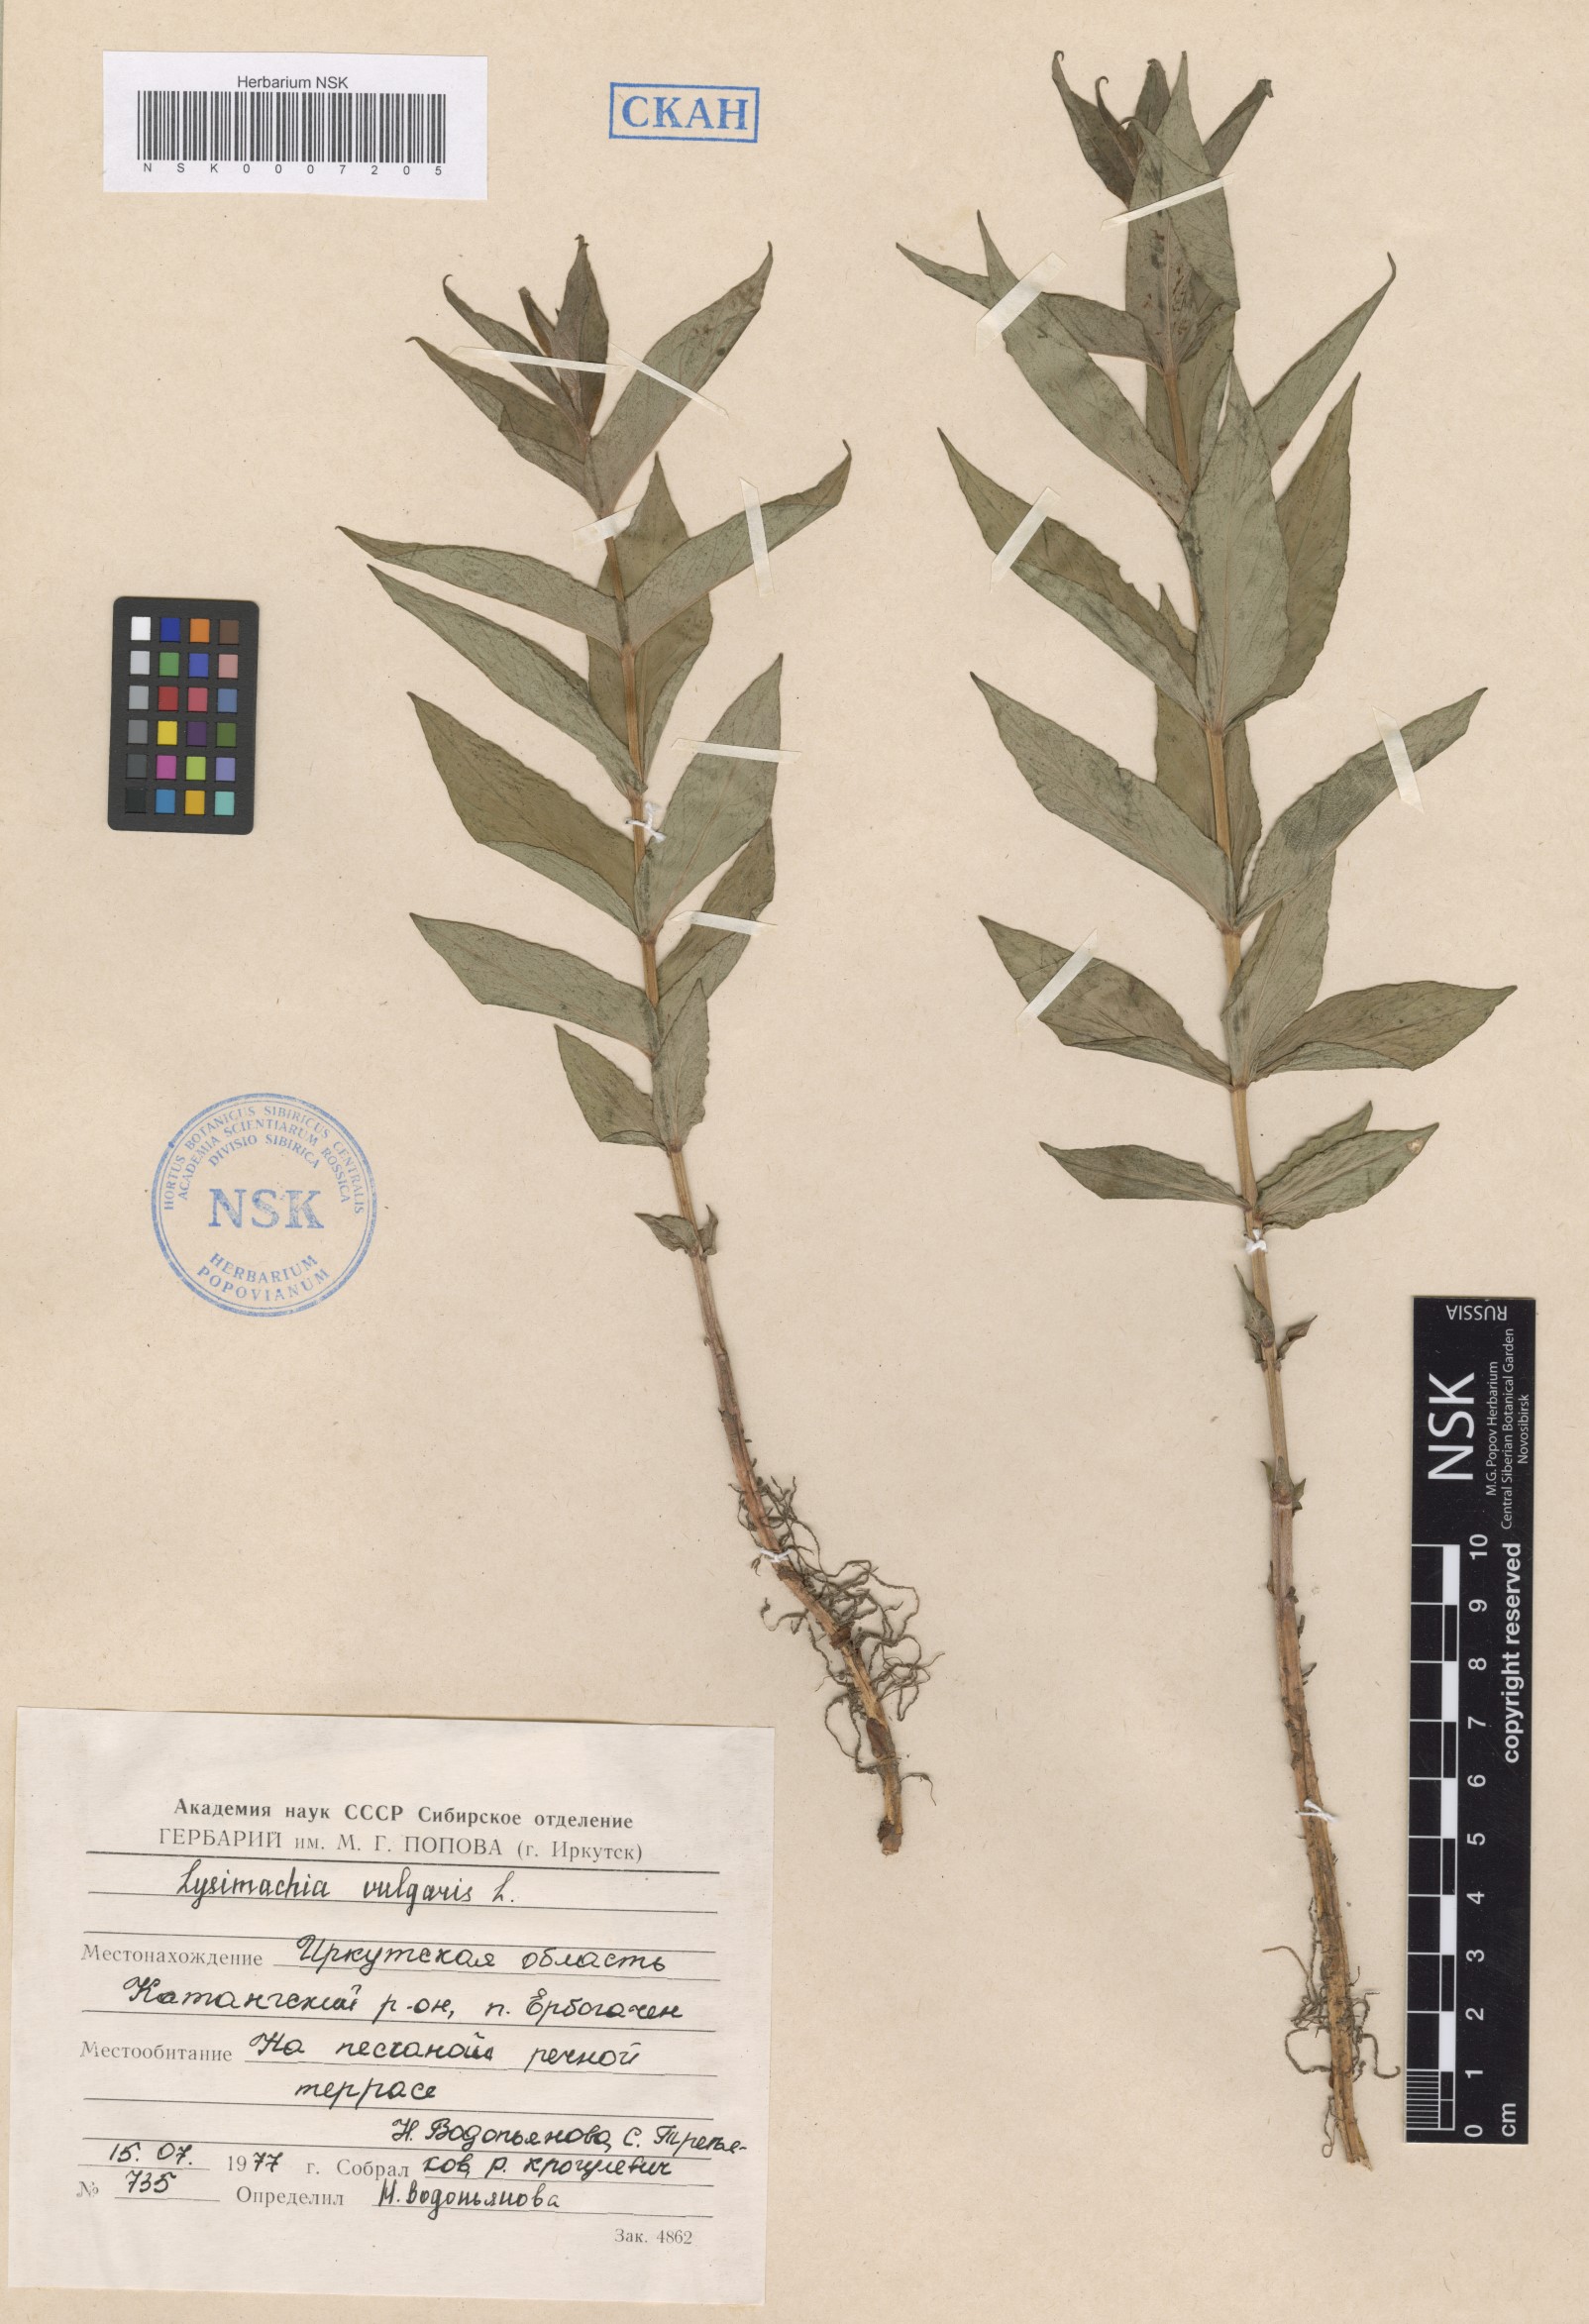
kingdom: Plantae
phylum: Tracheophyta
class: Magnoliopsida
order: Ericales
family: Primulaceae
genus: Lysimachia
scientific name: Lysimachia vulgaris
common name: Yellow loosestrife
